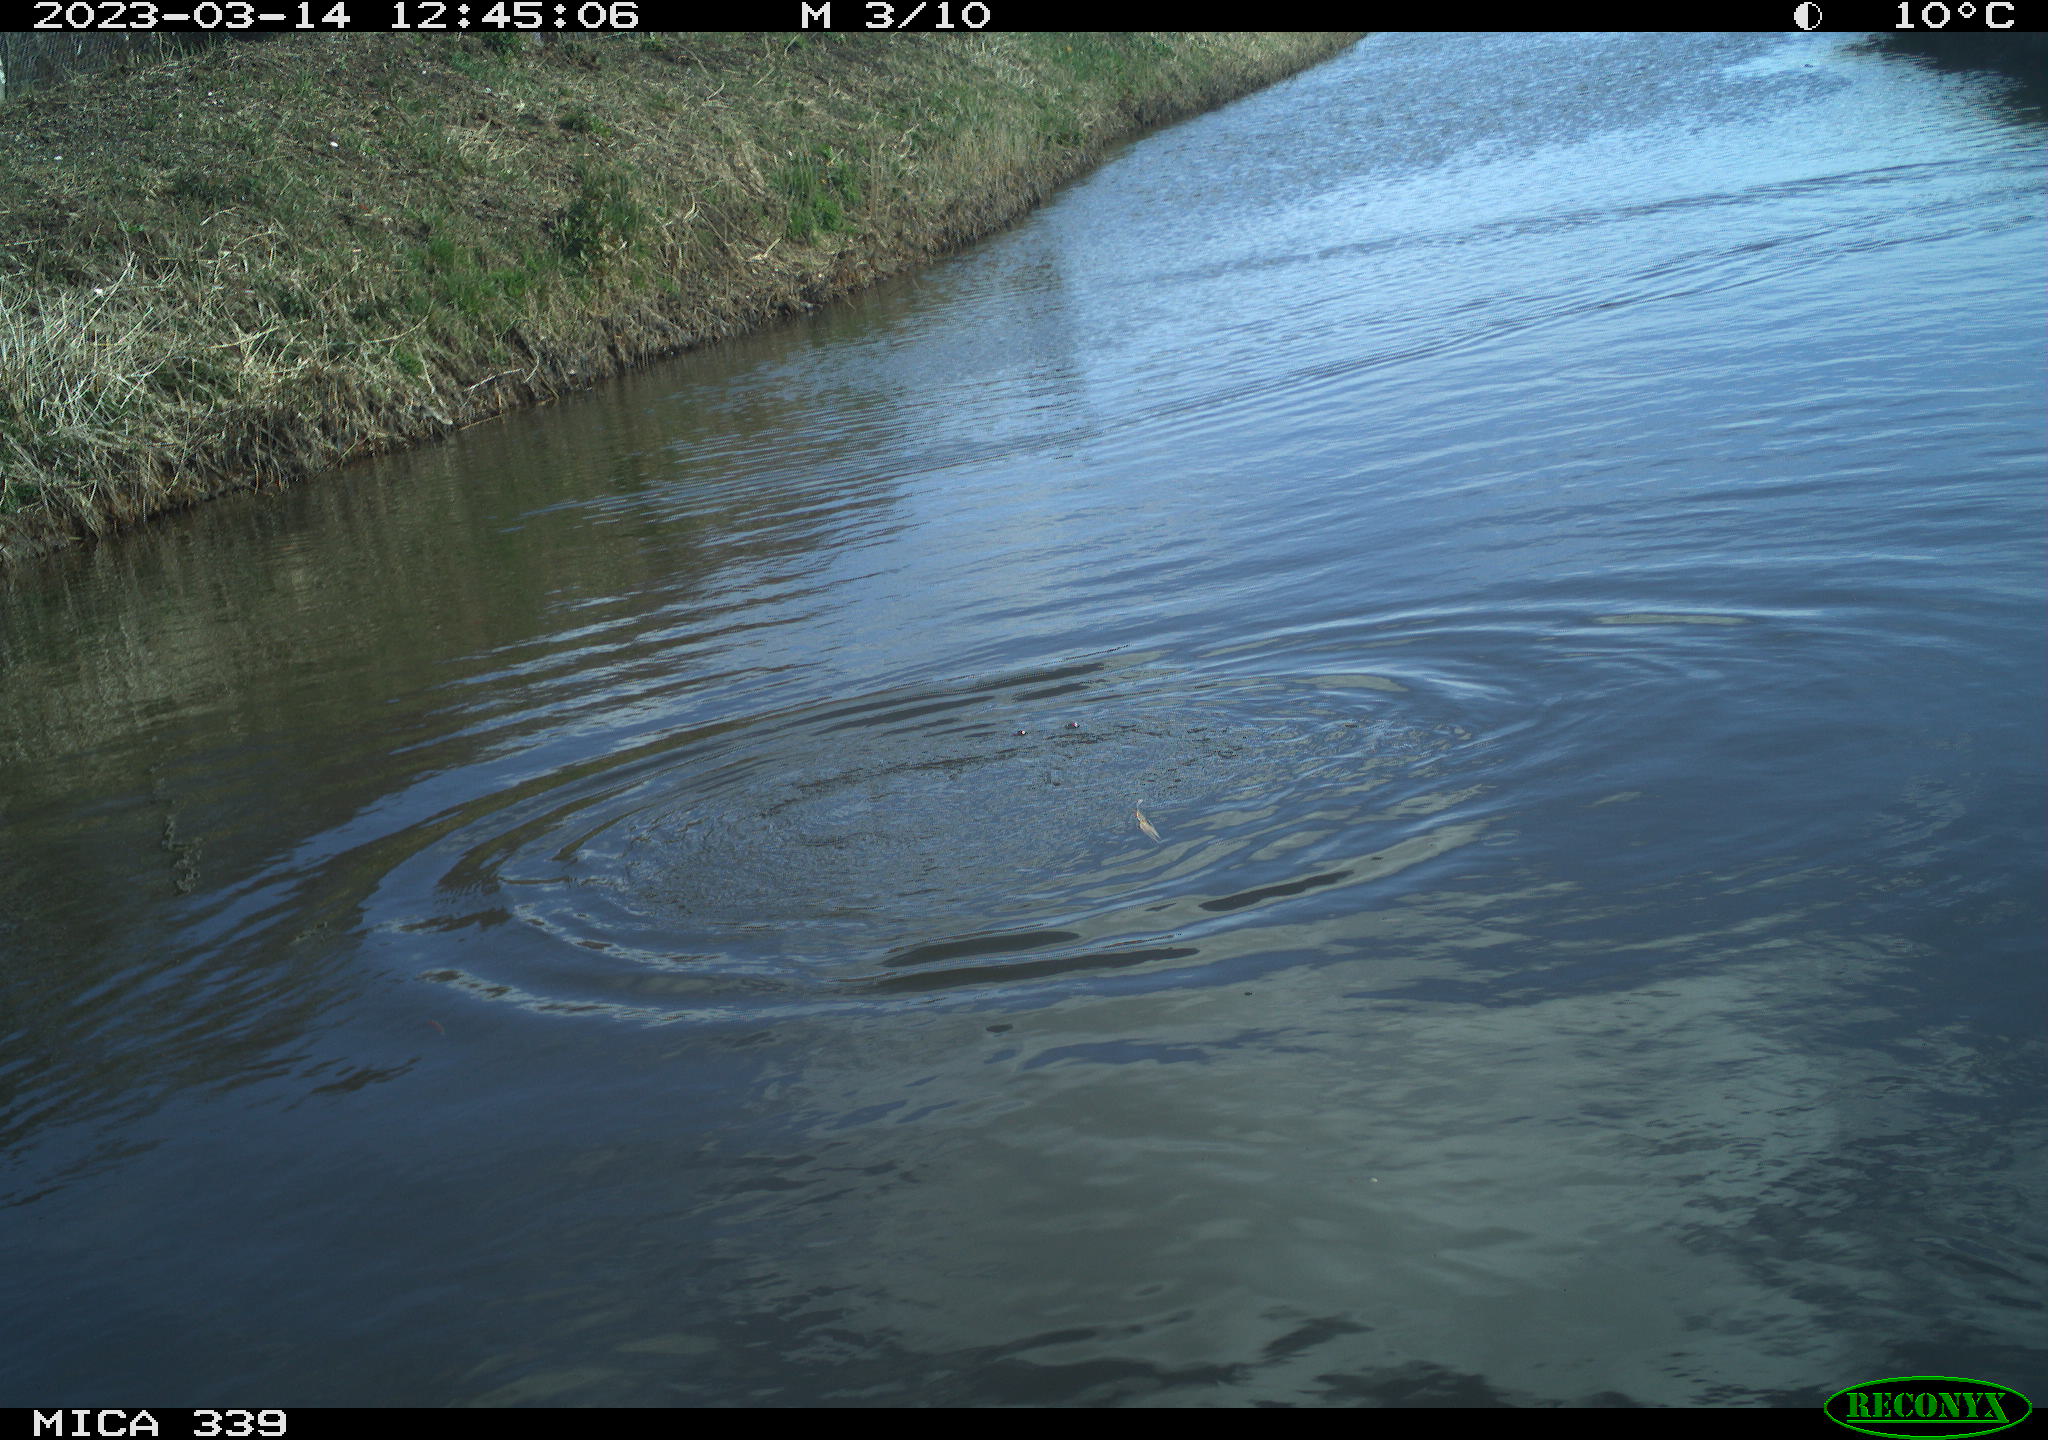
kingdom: Animalia
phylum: Chordata
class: Aves
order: Suliformes
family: Phalacrocoracidae
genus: Phalacrocorax
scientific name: Phalacrocorax carbo
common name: Great cormorant
